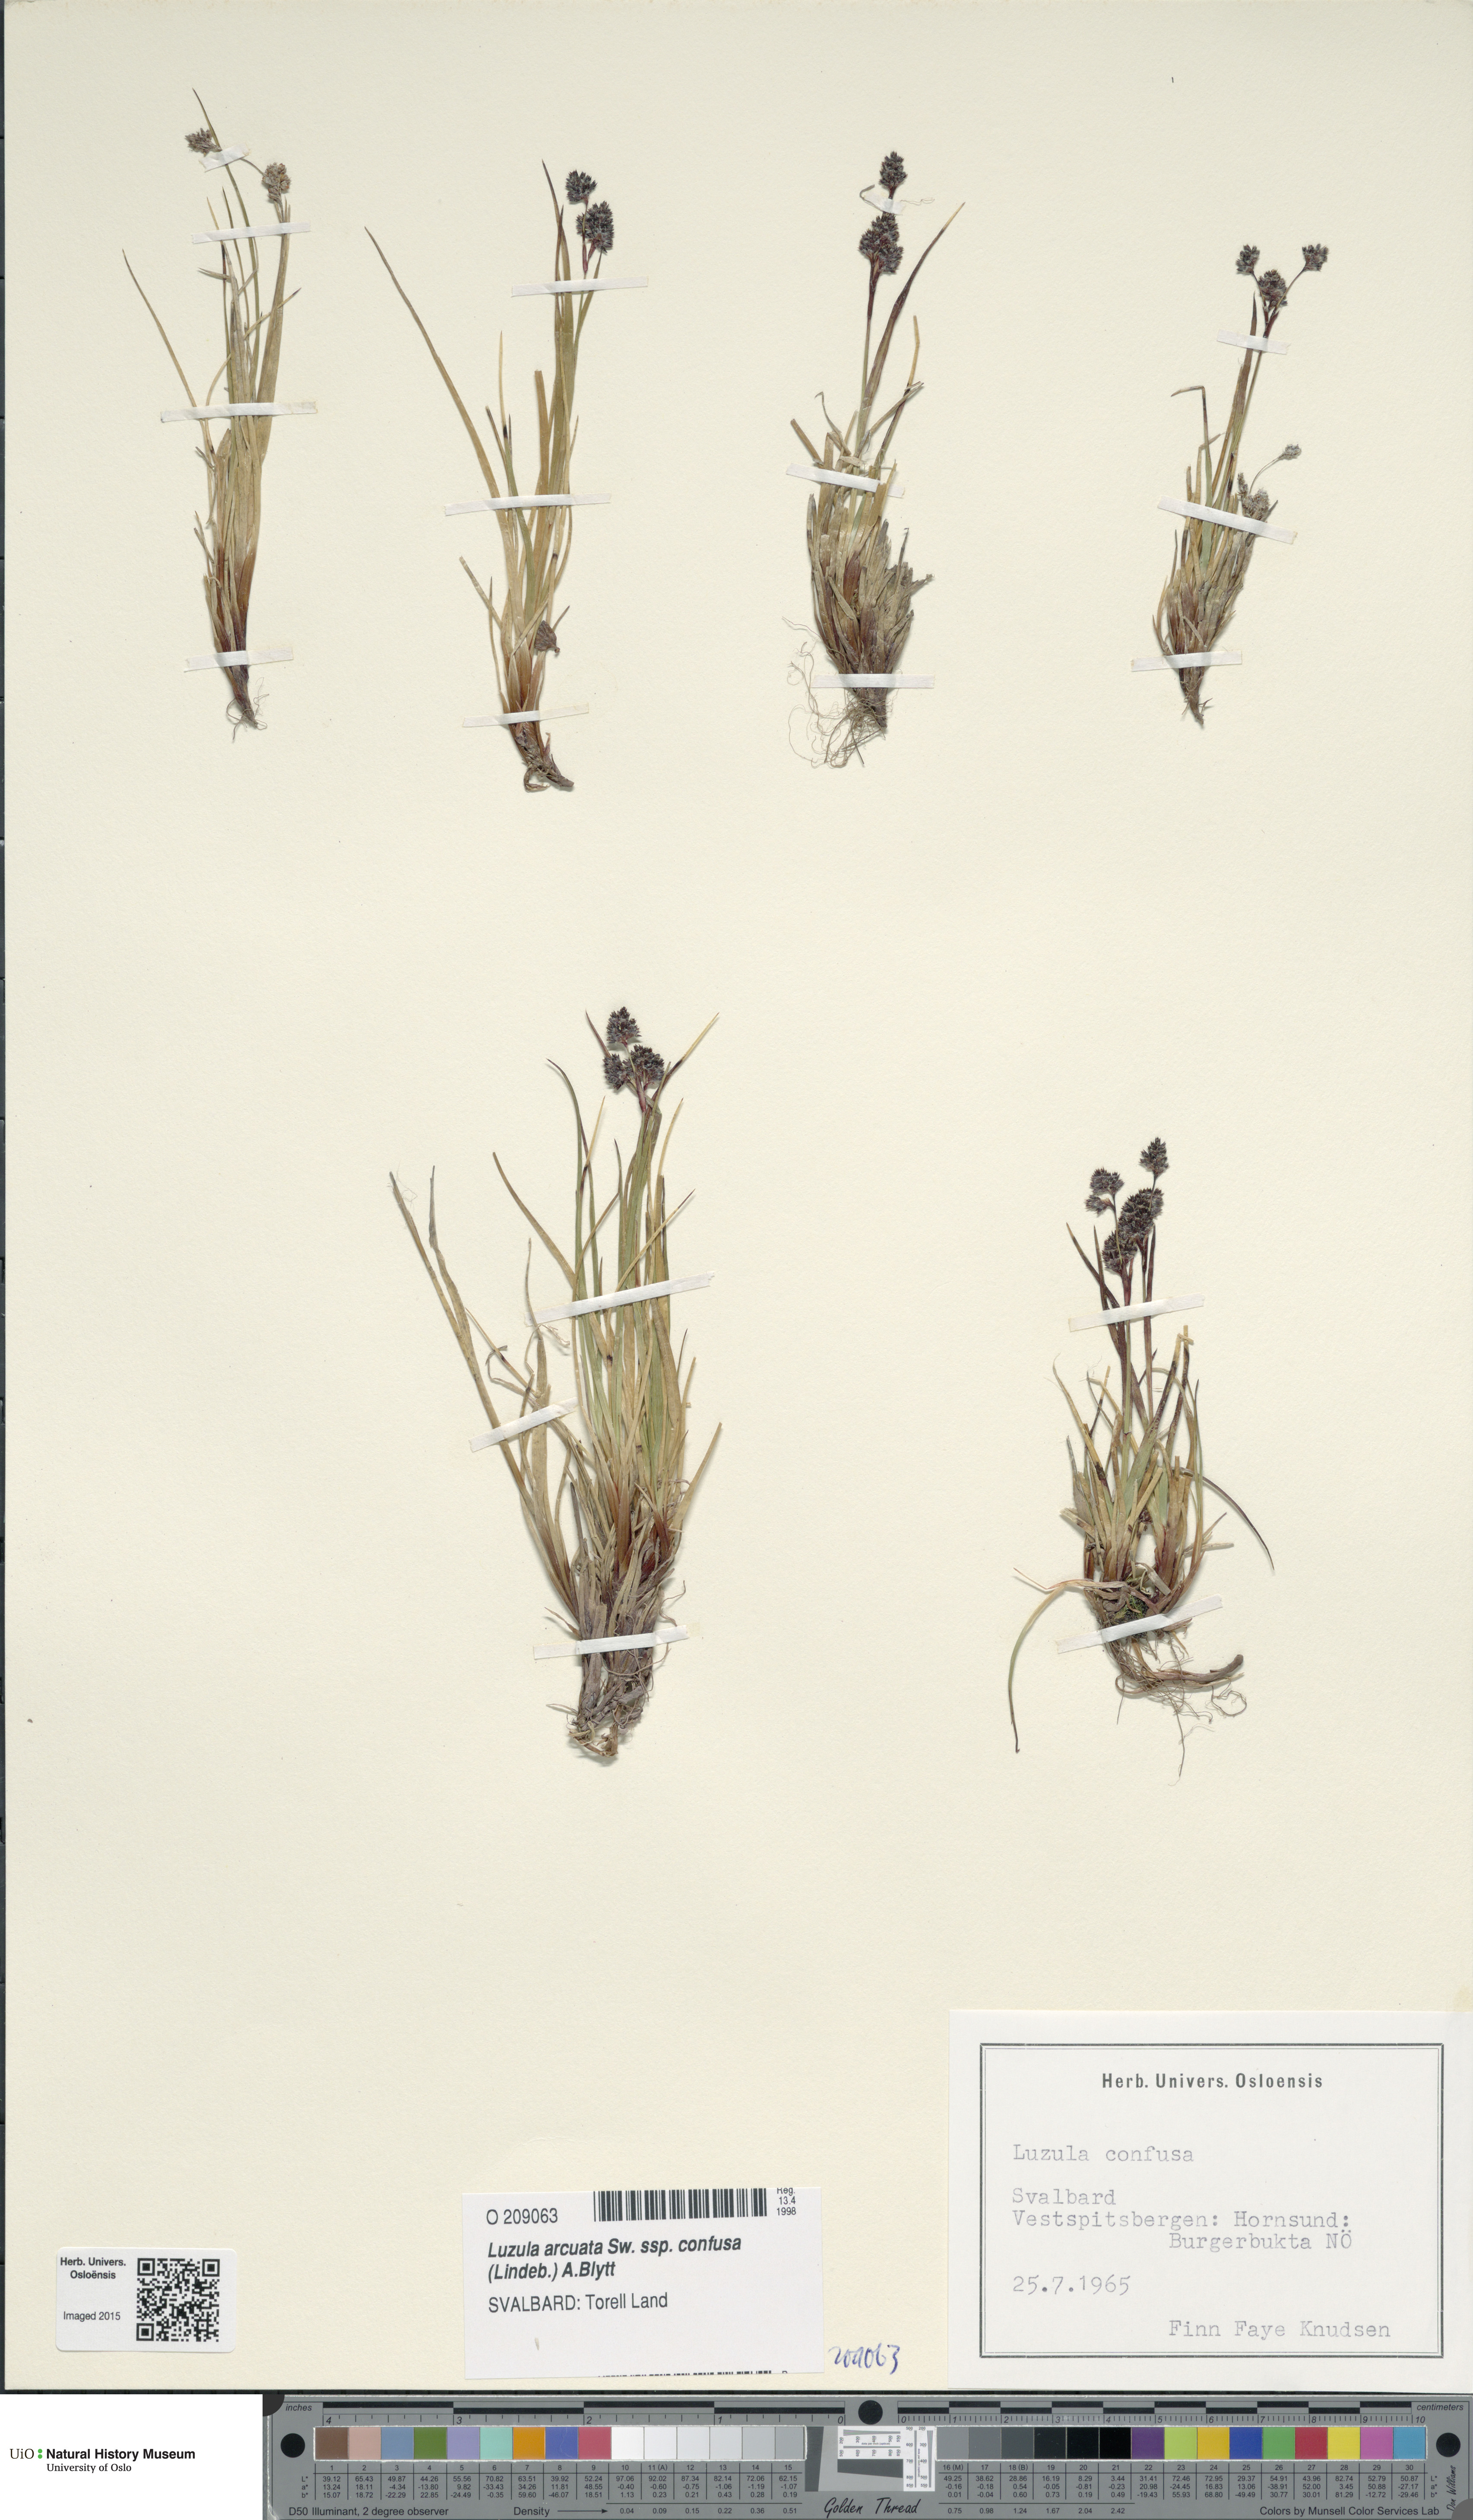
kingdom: Plantae
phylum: Tracheophyta
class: Liliopsida
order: Poales
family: Juncaceae
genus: Luzula
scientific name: Luzula confusa
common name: Northern wood rush
